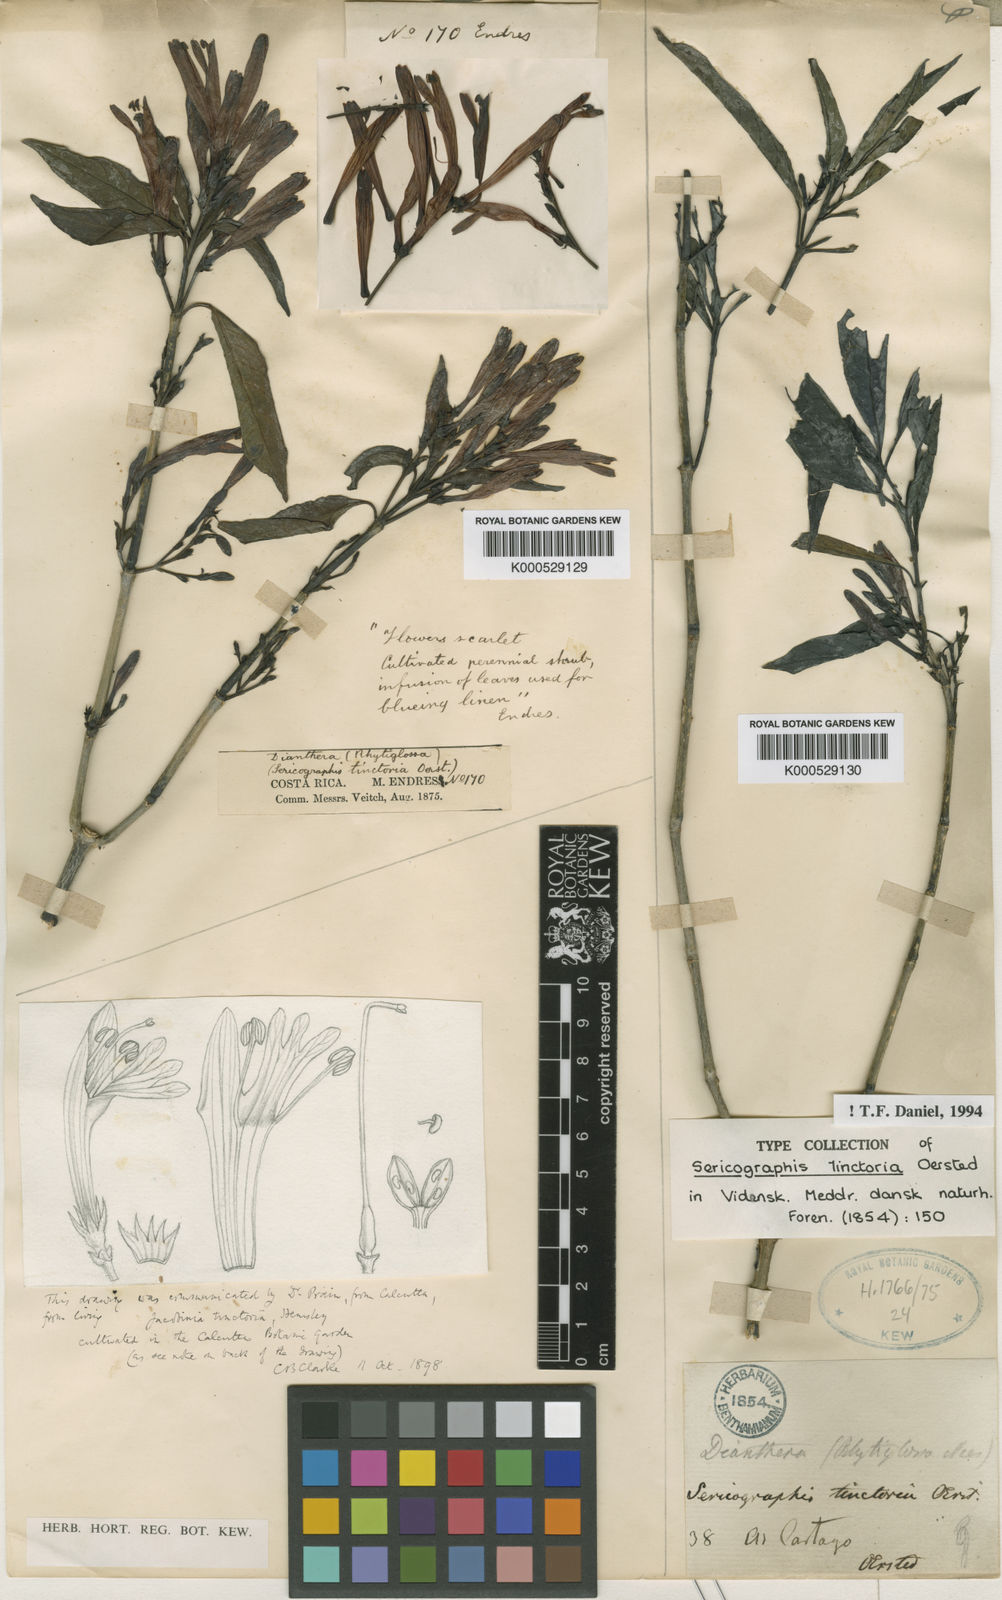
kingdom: Plantae
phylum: Tracheophyta
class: Magnoliopsida
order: Lamiales
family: Acanthaceae
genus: Justicia
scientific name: Justicia tinctoriella
